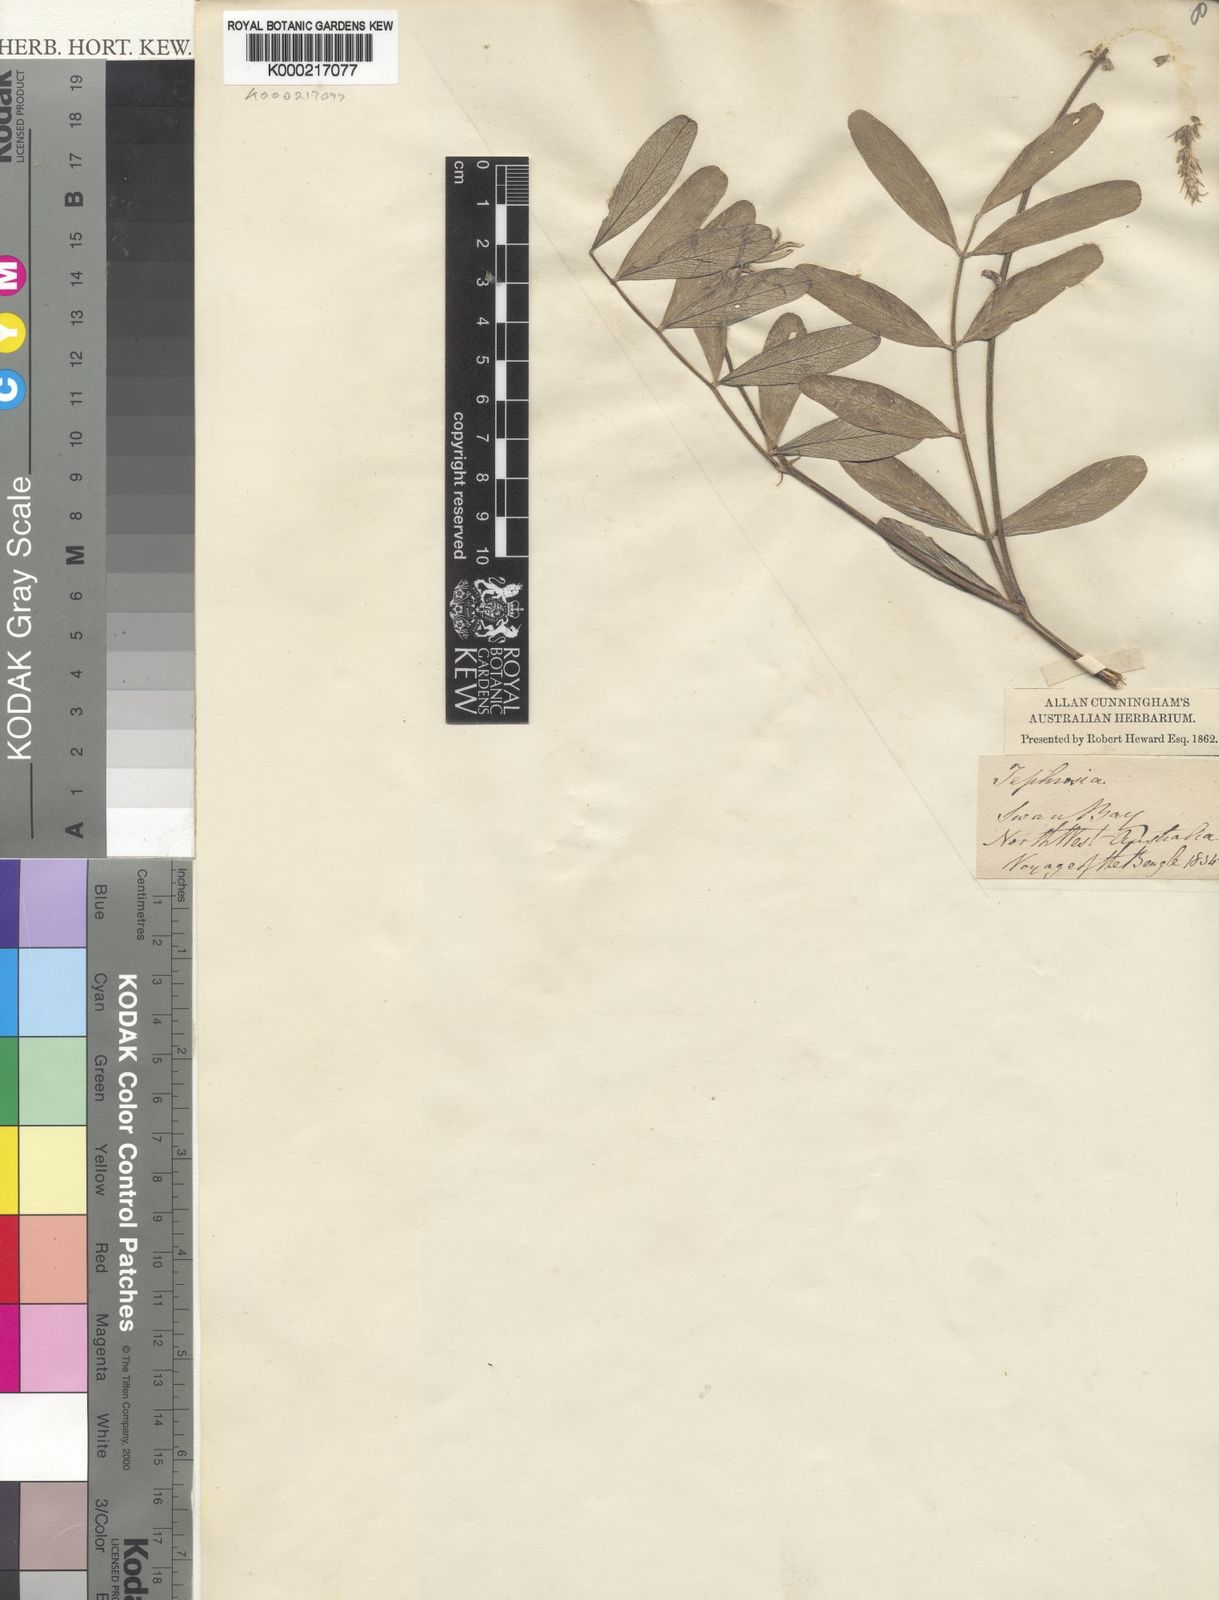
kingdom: Plantae
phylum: Tracheophyta
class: Magnoliopsida
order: Fabales
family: Fabaceae
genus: Tephrosia
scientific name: Tephrosia
